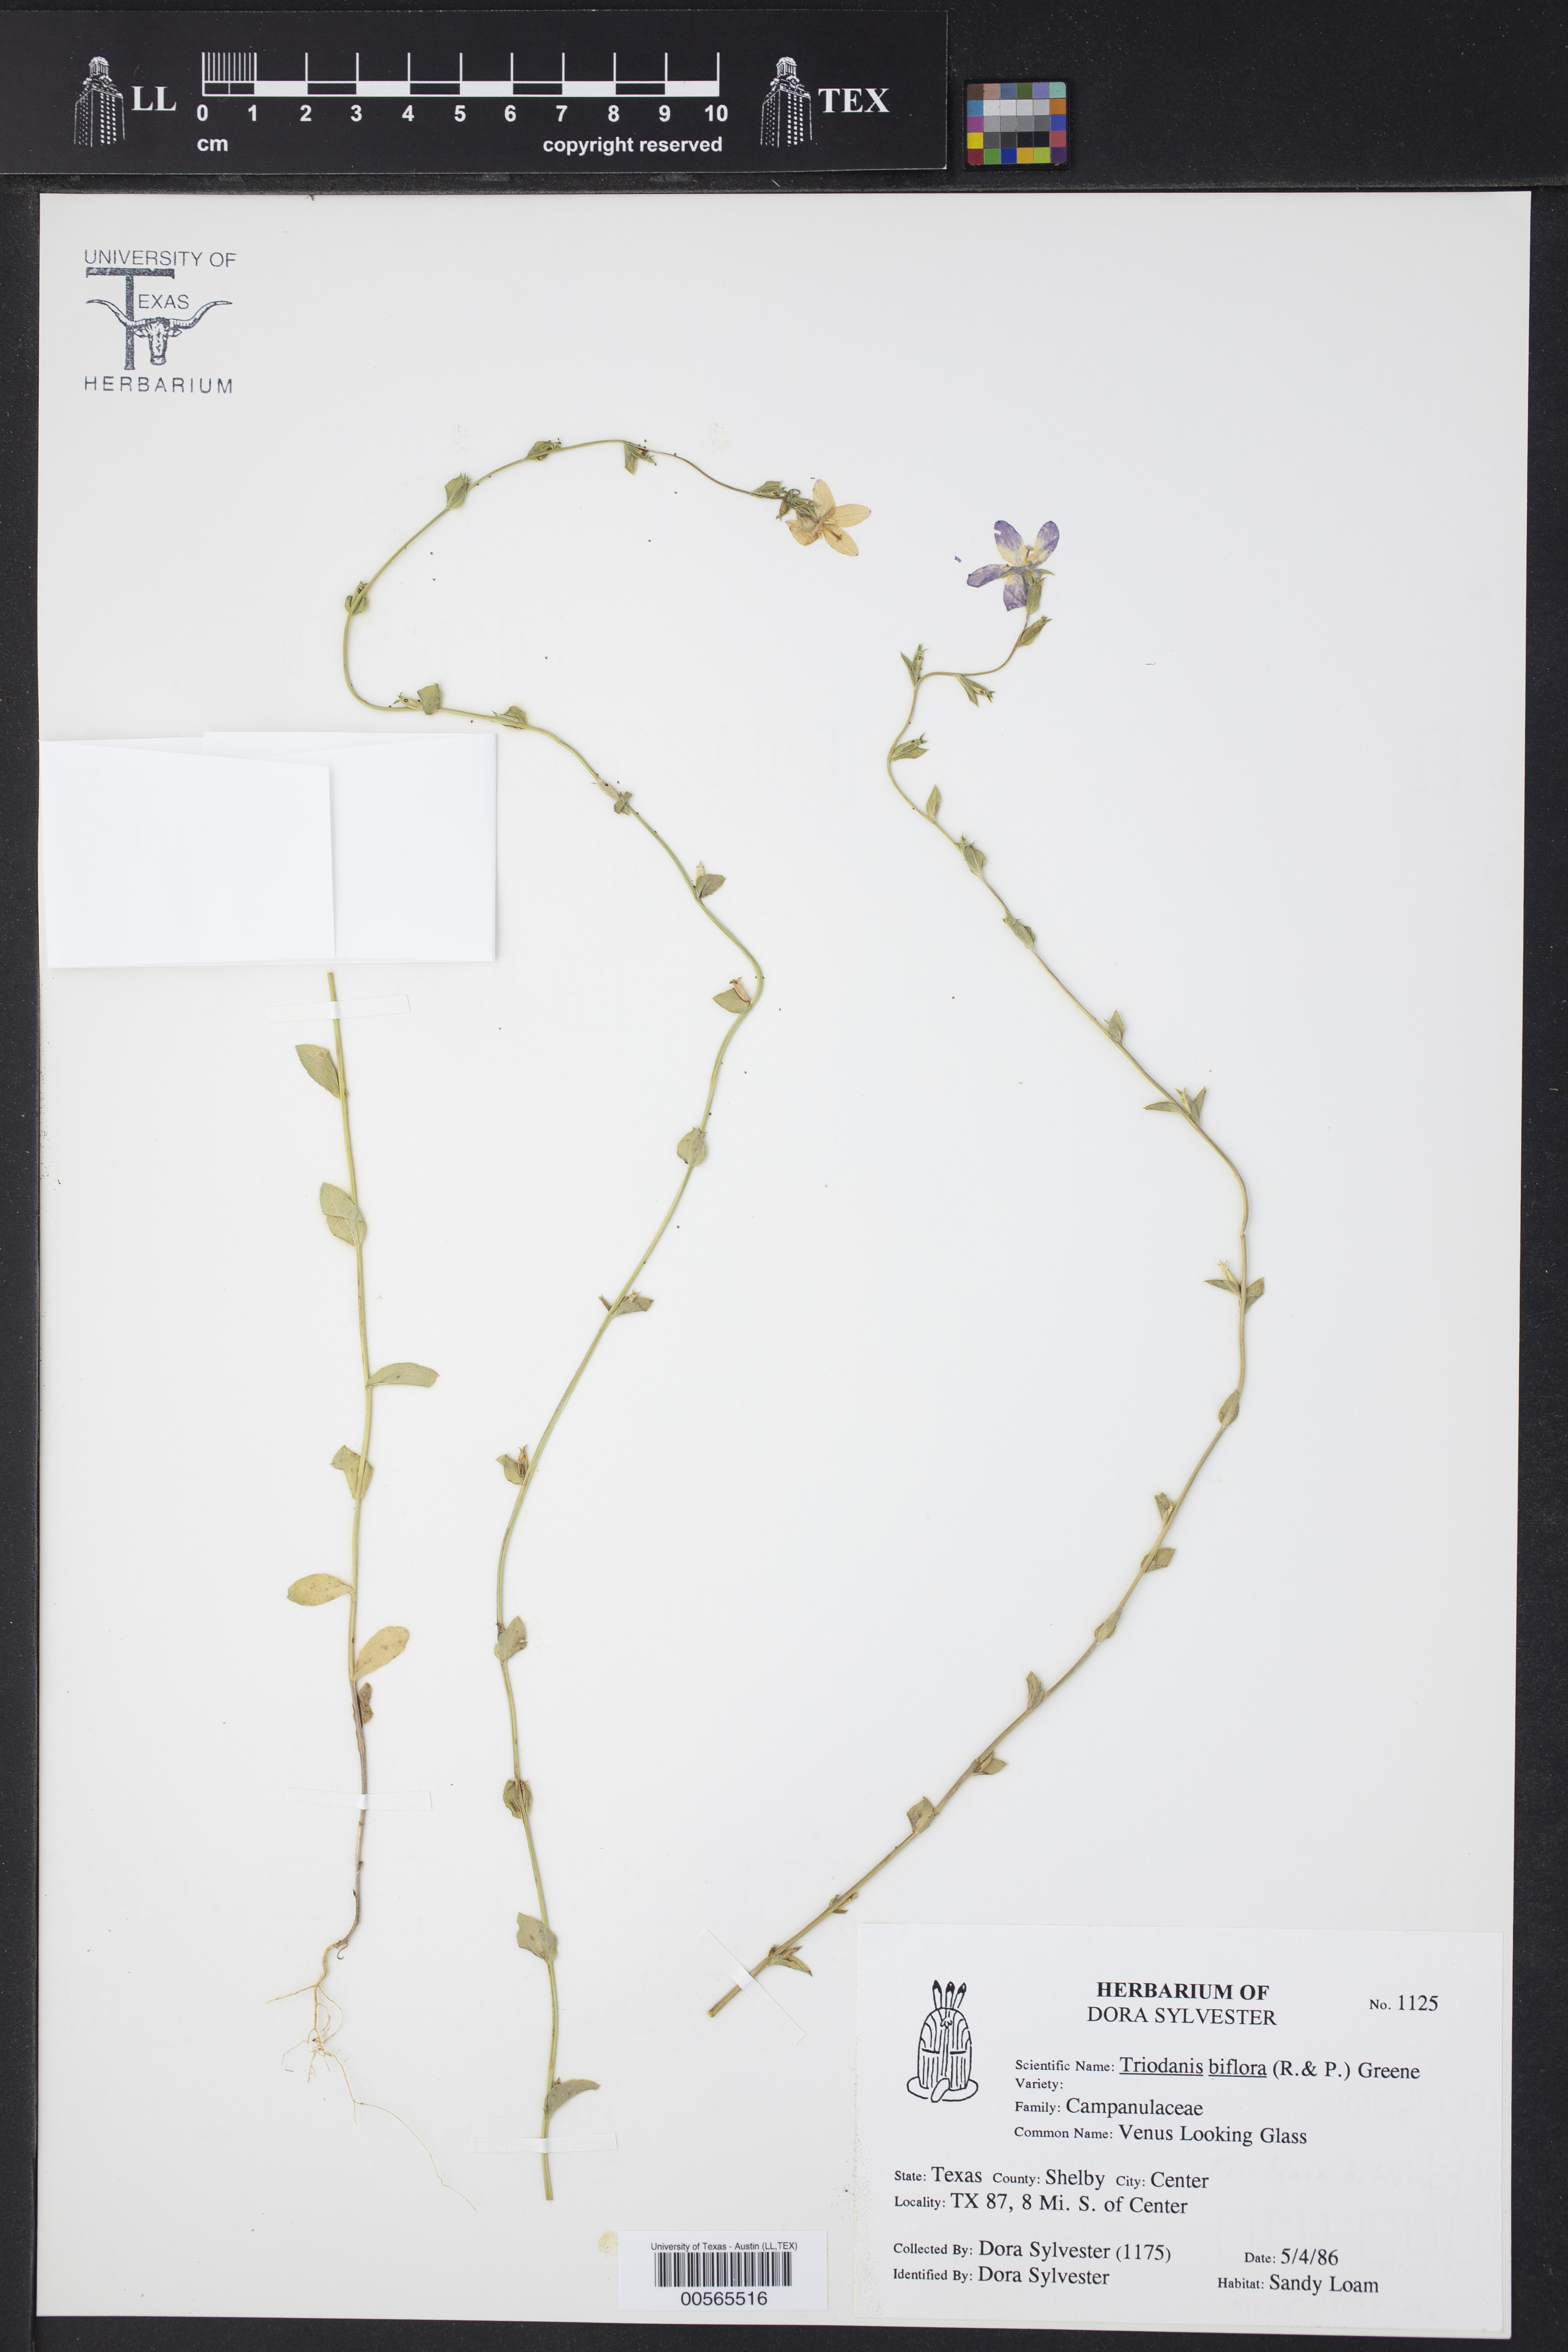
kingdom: Plantae
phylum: Tracheophyta
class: Magnoliopsida
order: Asterales
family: Campanulaceae
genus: Triodanis
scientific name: Triodanis biflora
